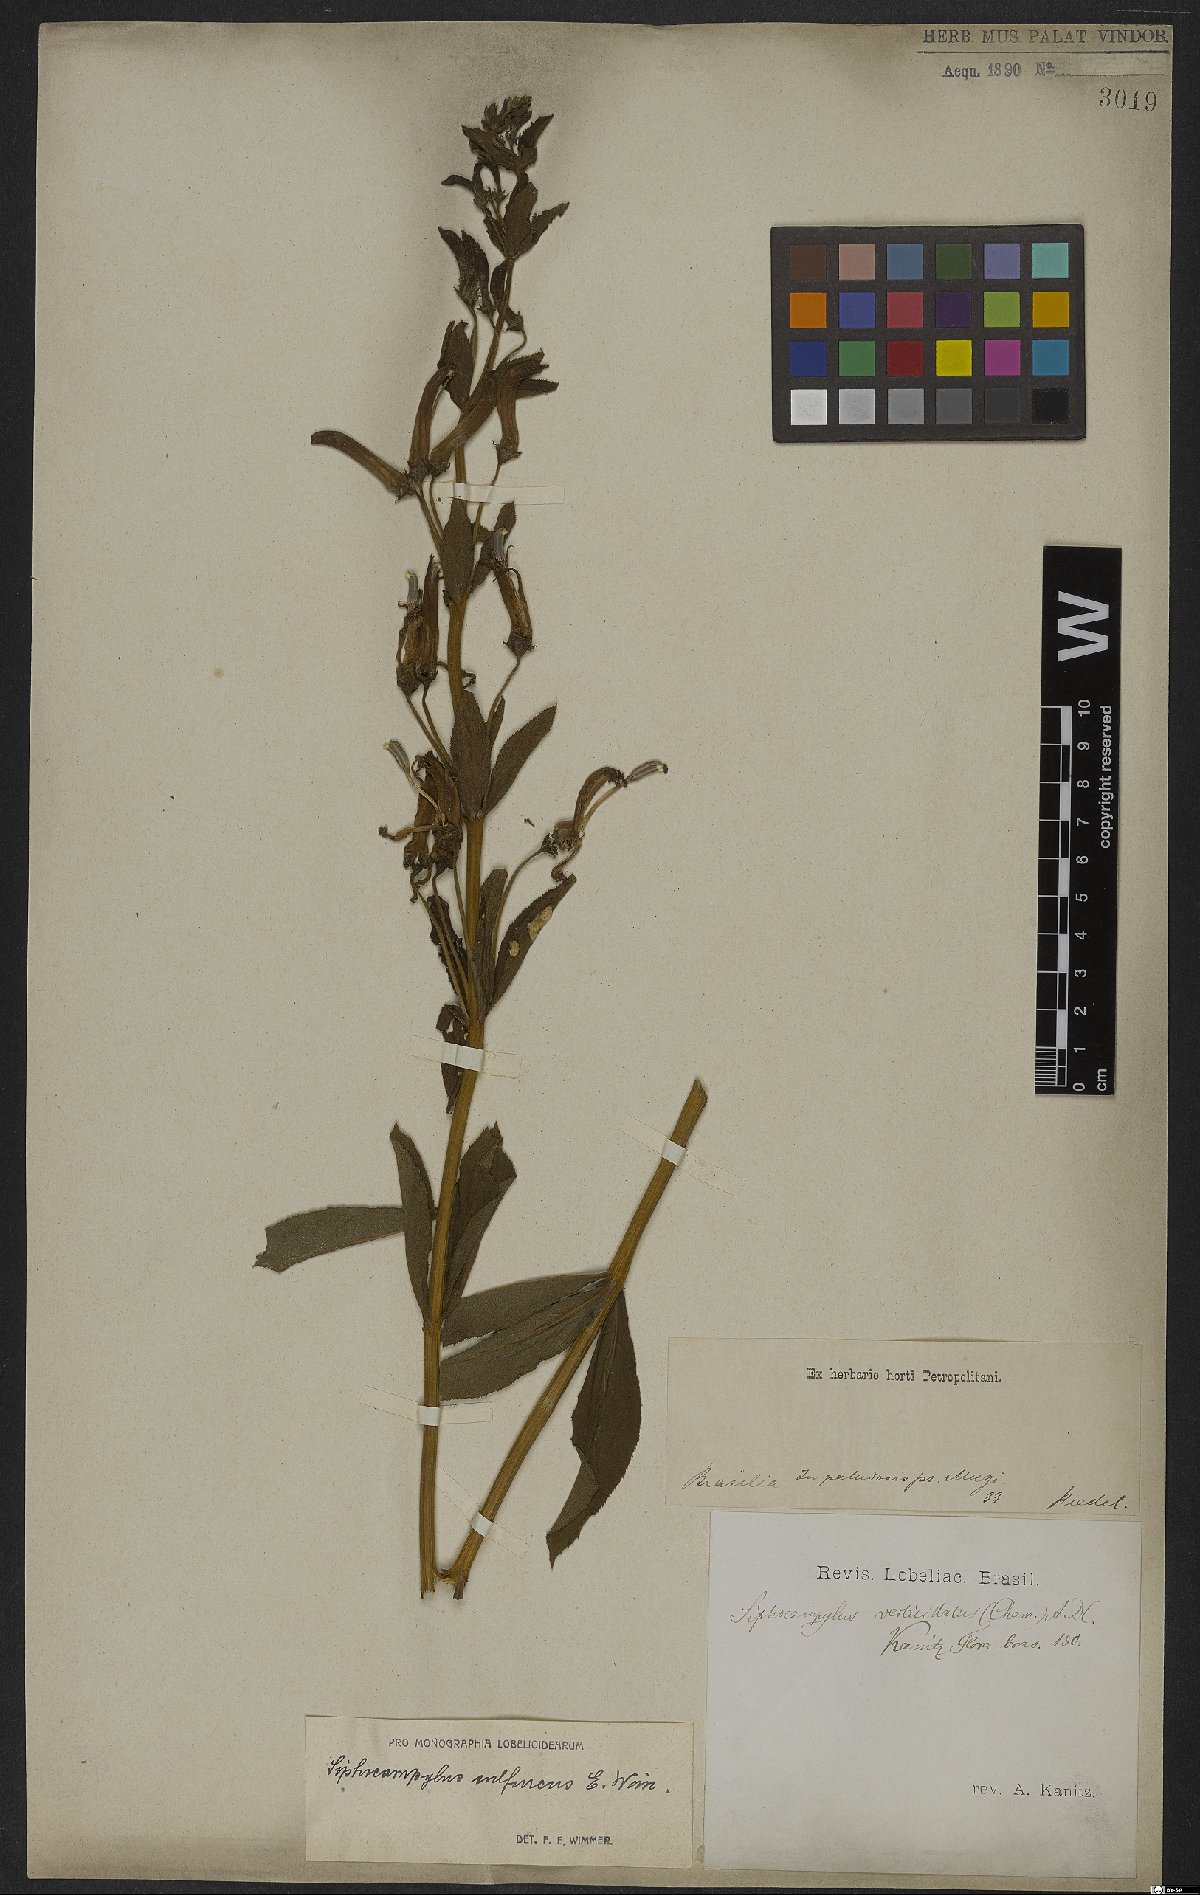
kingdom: Plantae
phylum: Tracheophyta
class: Magnoliopsida
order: Asterales
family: Campanulaceae
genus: Siphocampylus
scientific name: Siphocampylus sulfureus
